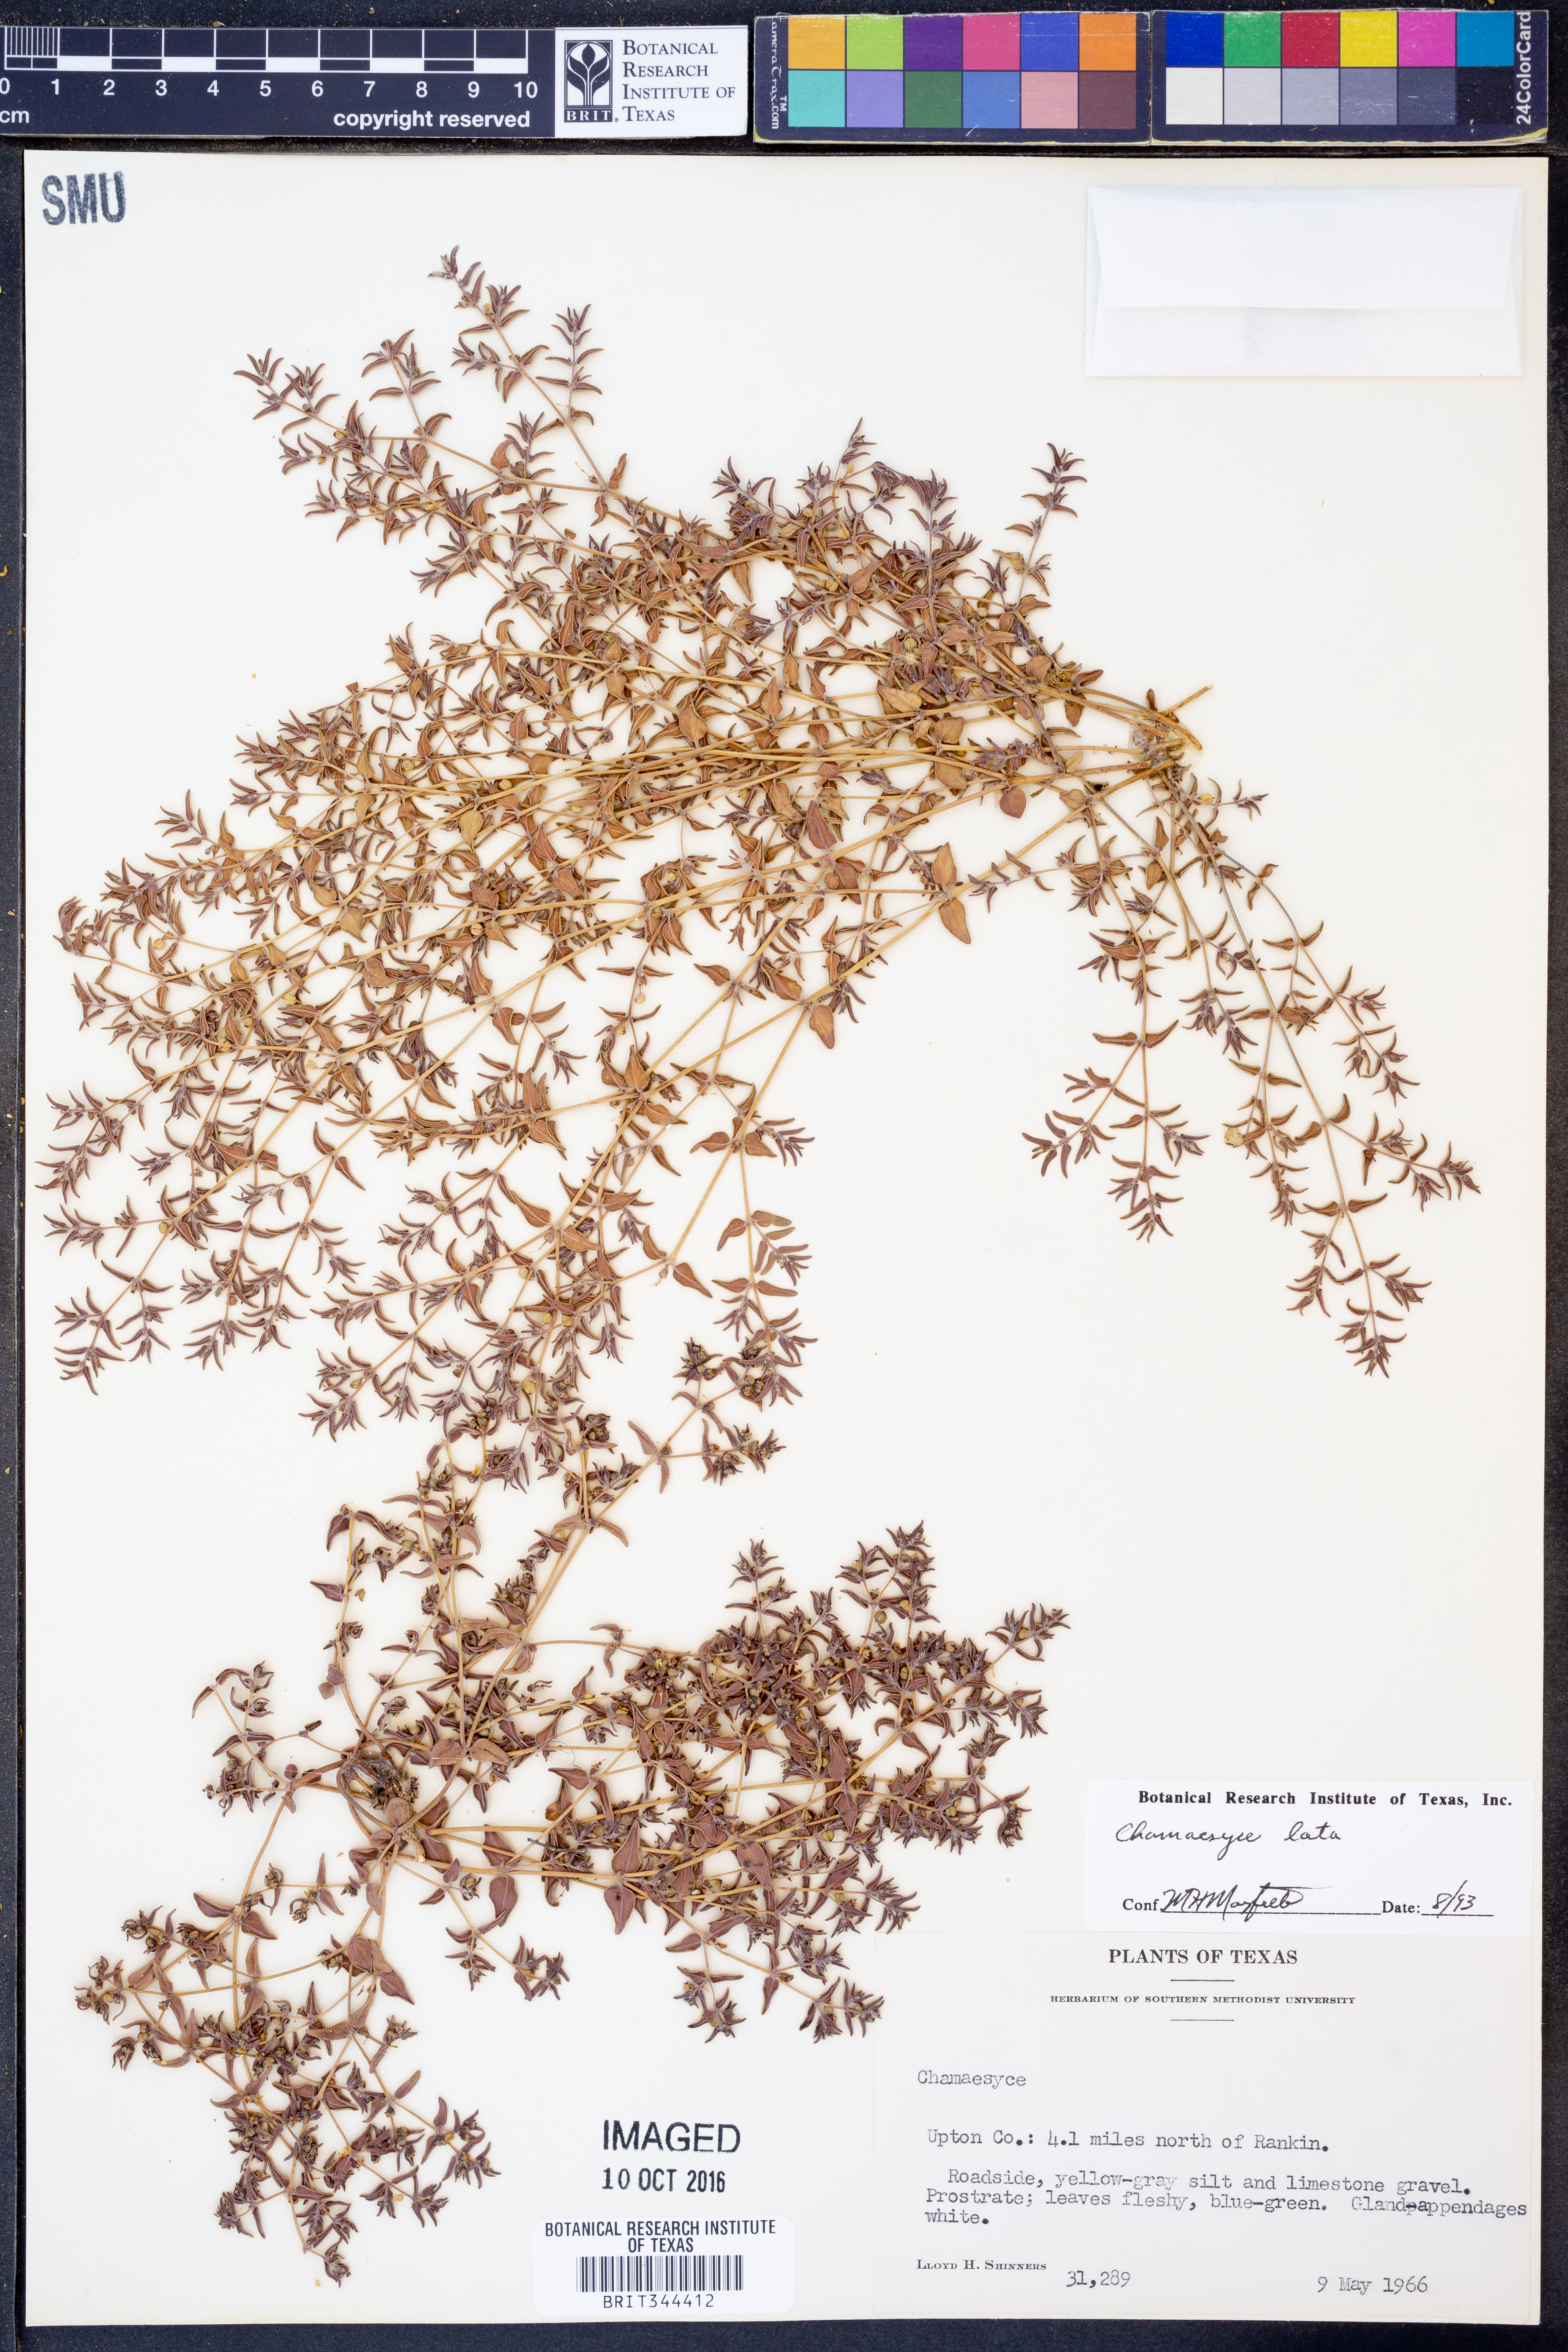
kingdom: Plantae
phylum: Tracheophyta
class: Magnoliopsida
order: Malpighiales
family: Euphorbiaceae
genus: Euphorbia
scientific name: Euphorbia lata
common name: Hoary euphorbia
